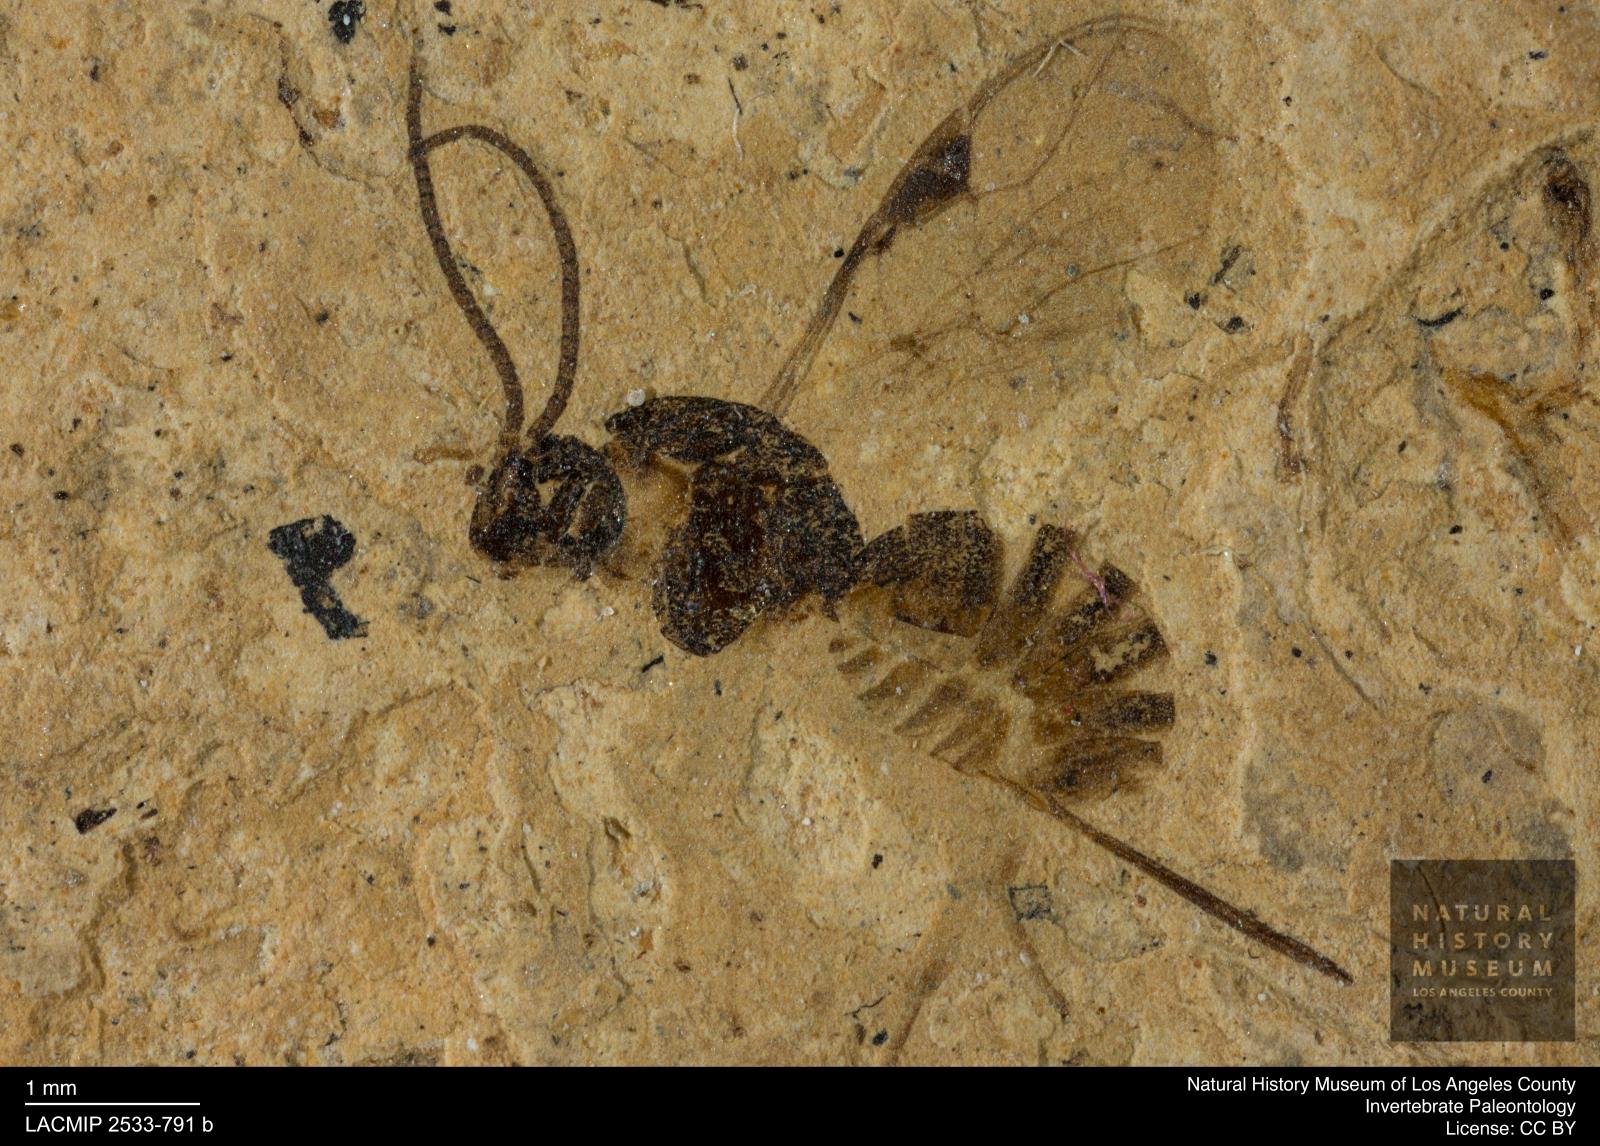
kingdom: Animalia
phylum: Arthropoda
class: Insecta
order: Hymenoptera
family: Braconidae
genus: Alysia
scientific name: Alysia latifrons
